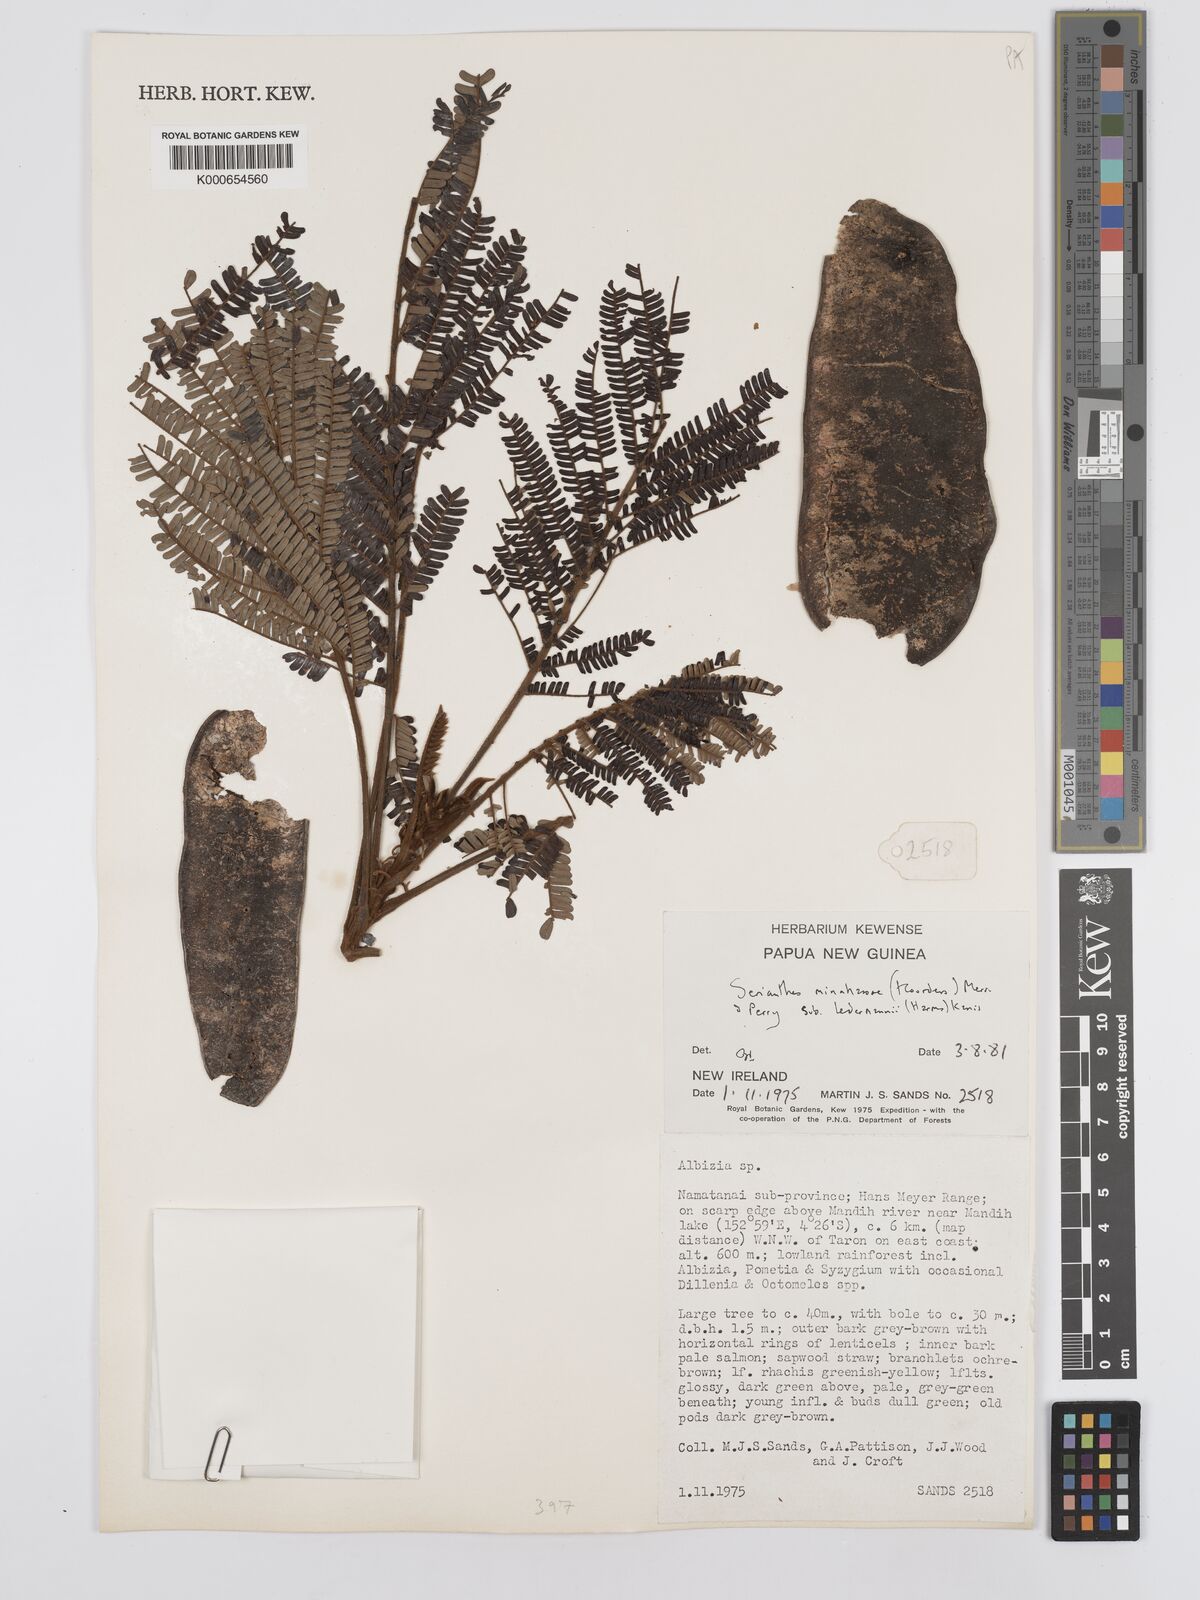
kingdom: Plantae
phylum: Tracheophyta
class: Magnoliopsida
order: Fabales
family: Fabaceae
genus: Serianthes
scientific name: Serianthes minahassae
